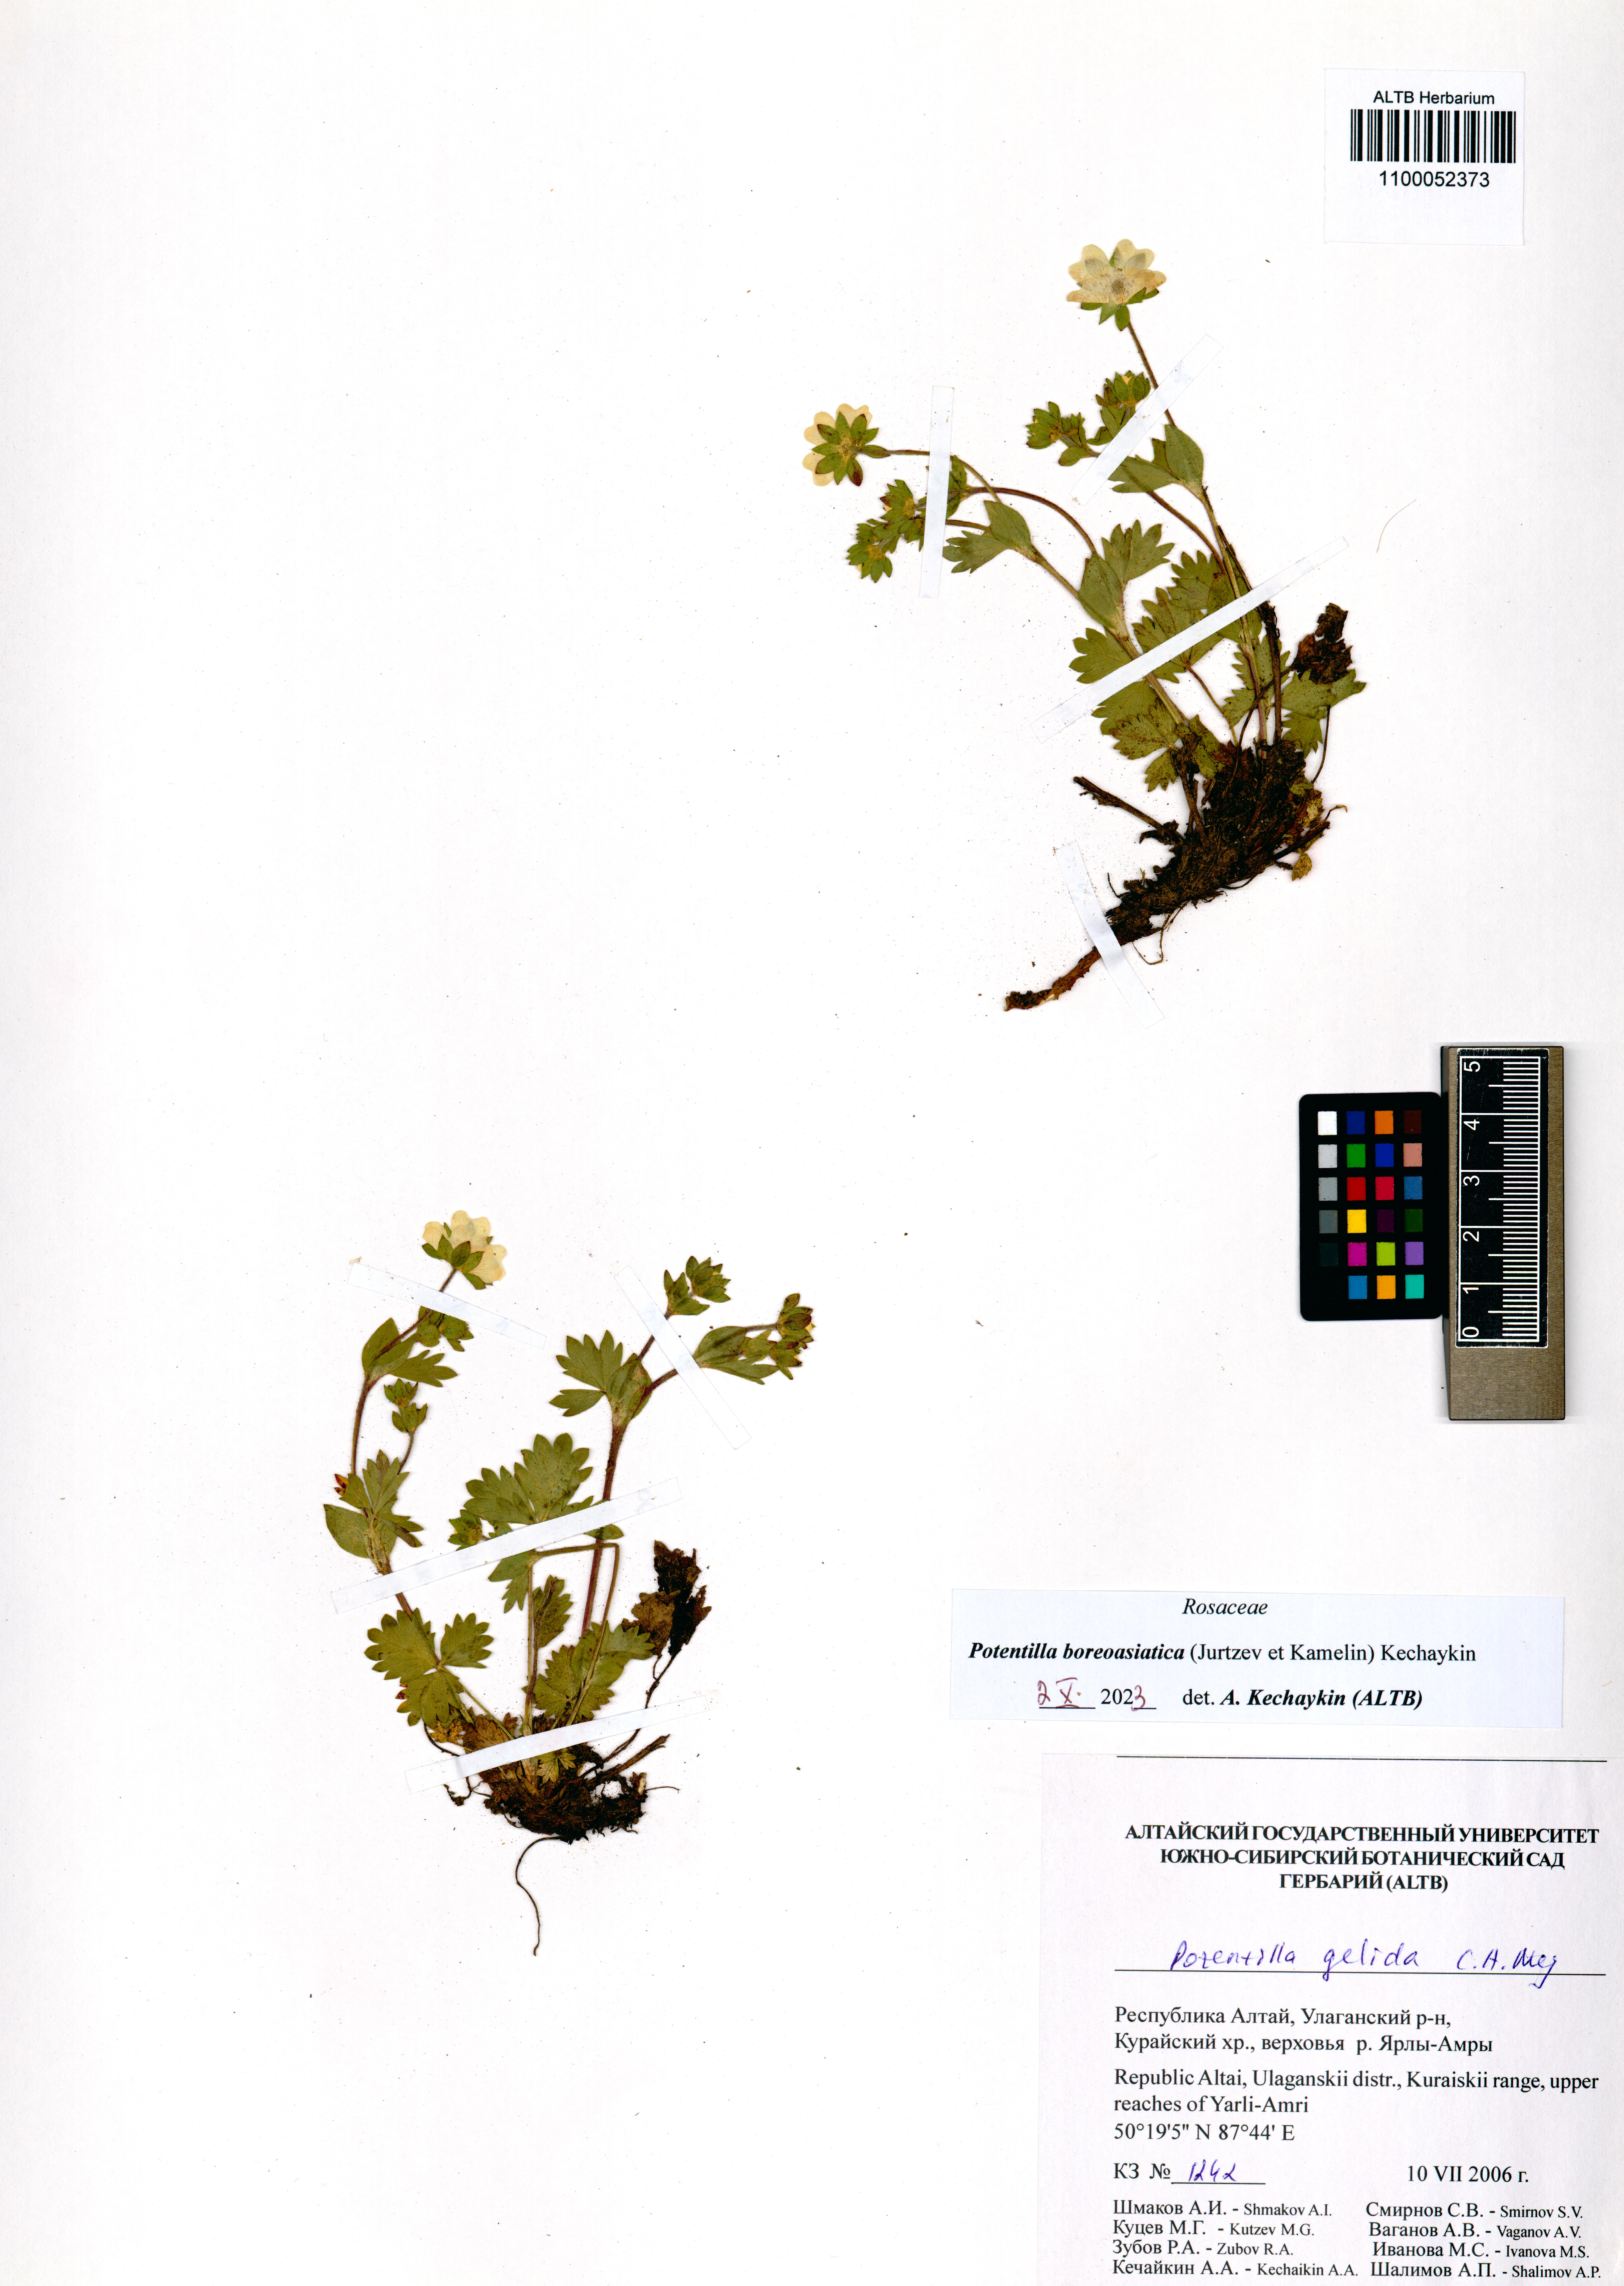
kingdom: Plantae
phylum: Tracheophyta
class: Magnoliopsida
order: Rosales
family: Rosaceae
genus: Potentilla
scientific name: Potentilla
